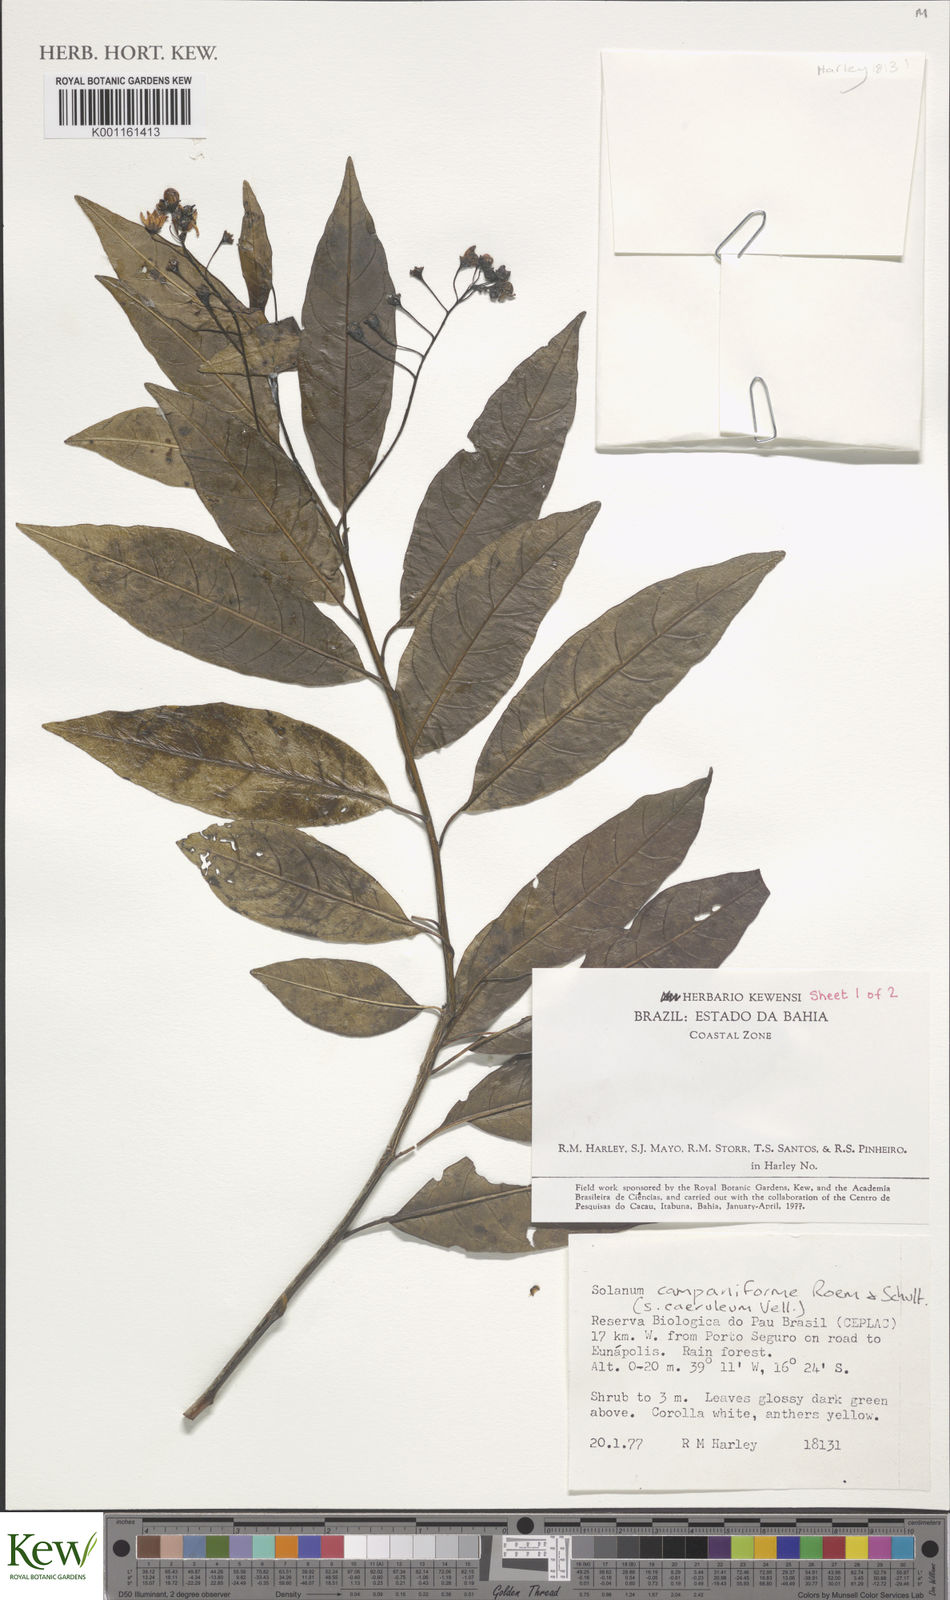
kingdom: Plantae
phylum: Tracheophyta
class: Magnoliopsida
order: Solanales
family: Solanaceae
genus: Solanum
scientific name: Solanum campaniforme
